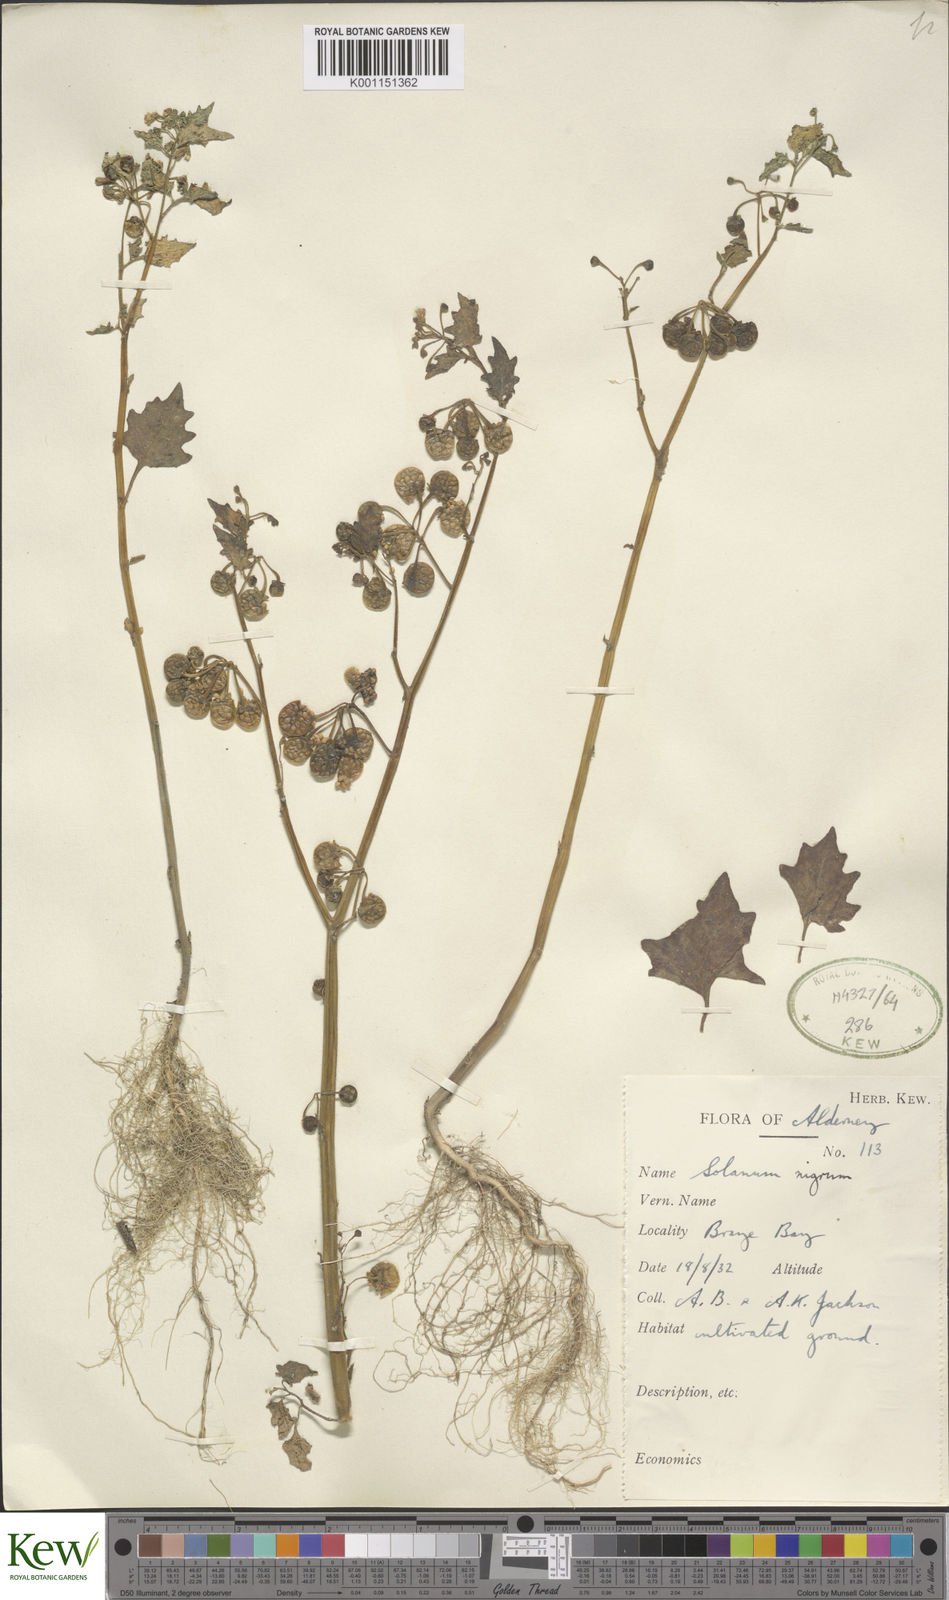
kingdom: Plantae
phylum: Tracheophyta
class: Magnoliopsida
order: Solanales
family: Solanaceae
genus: Solanum
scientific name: Solanum nigrum
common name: Black nightshade
